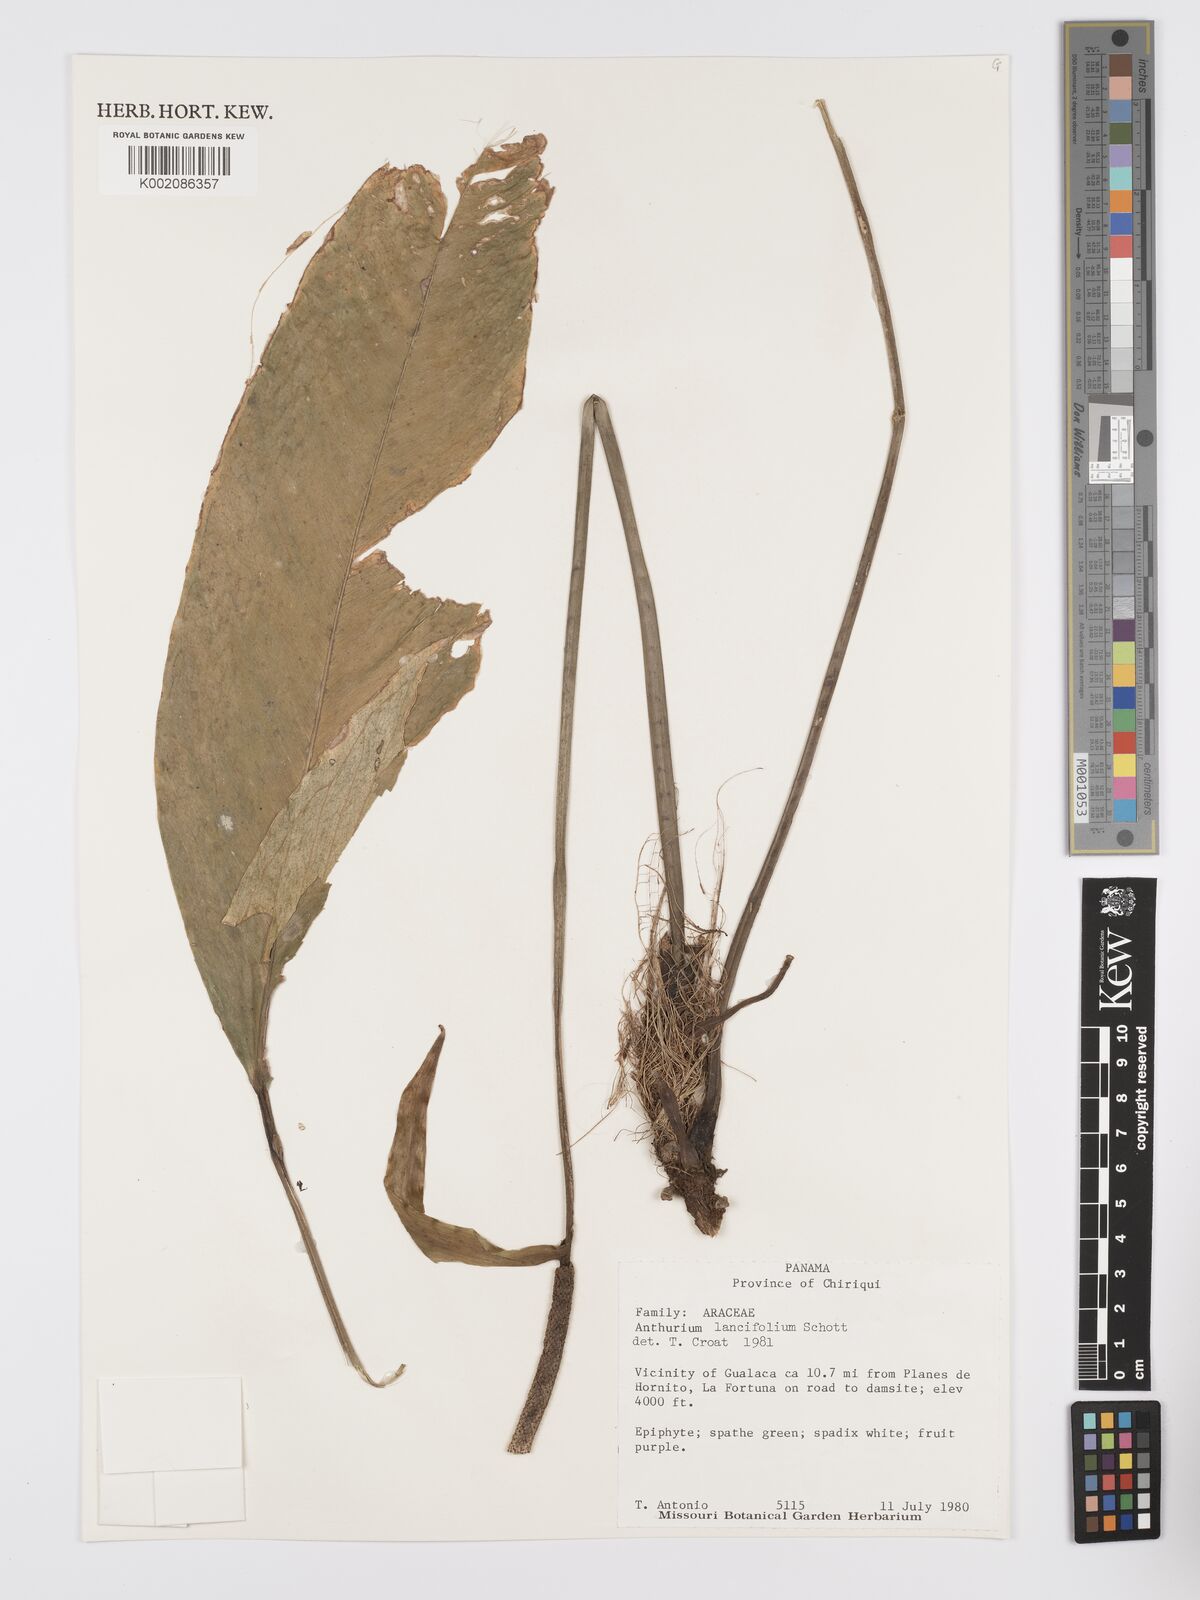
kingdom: Plantae
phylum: Tracheophyta
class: Liliopsida
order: Alismatales
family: Araceae
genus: Anthurium
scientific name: Anthurium lancifolium
